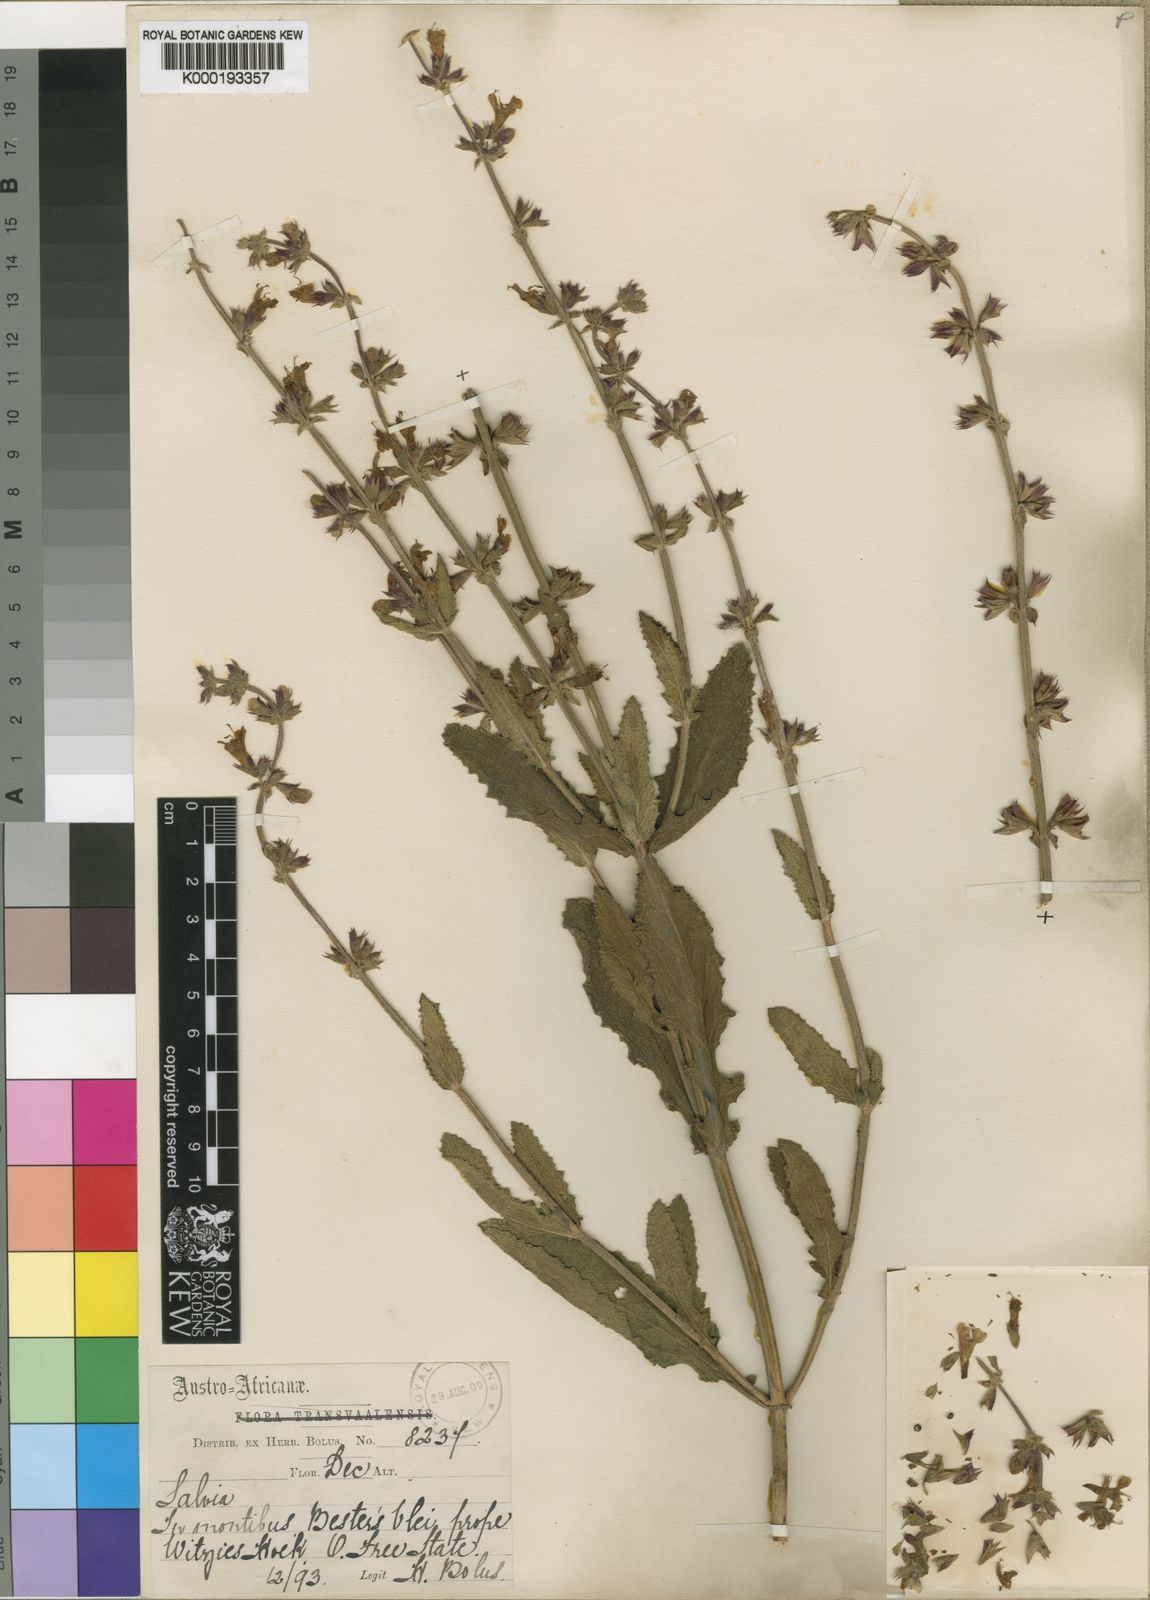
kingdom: Plantae
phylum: Tracheophyta
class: Magnoliopsida
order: Lamiales
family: Lamiaceae
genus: Salvia
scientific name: Salvia repens
